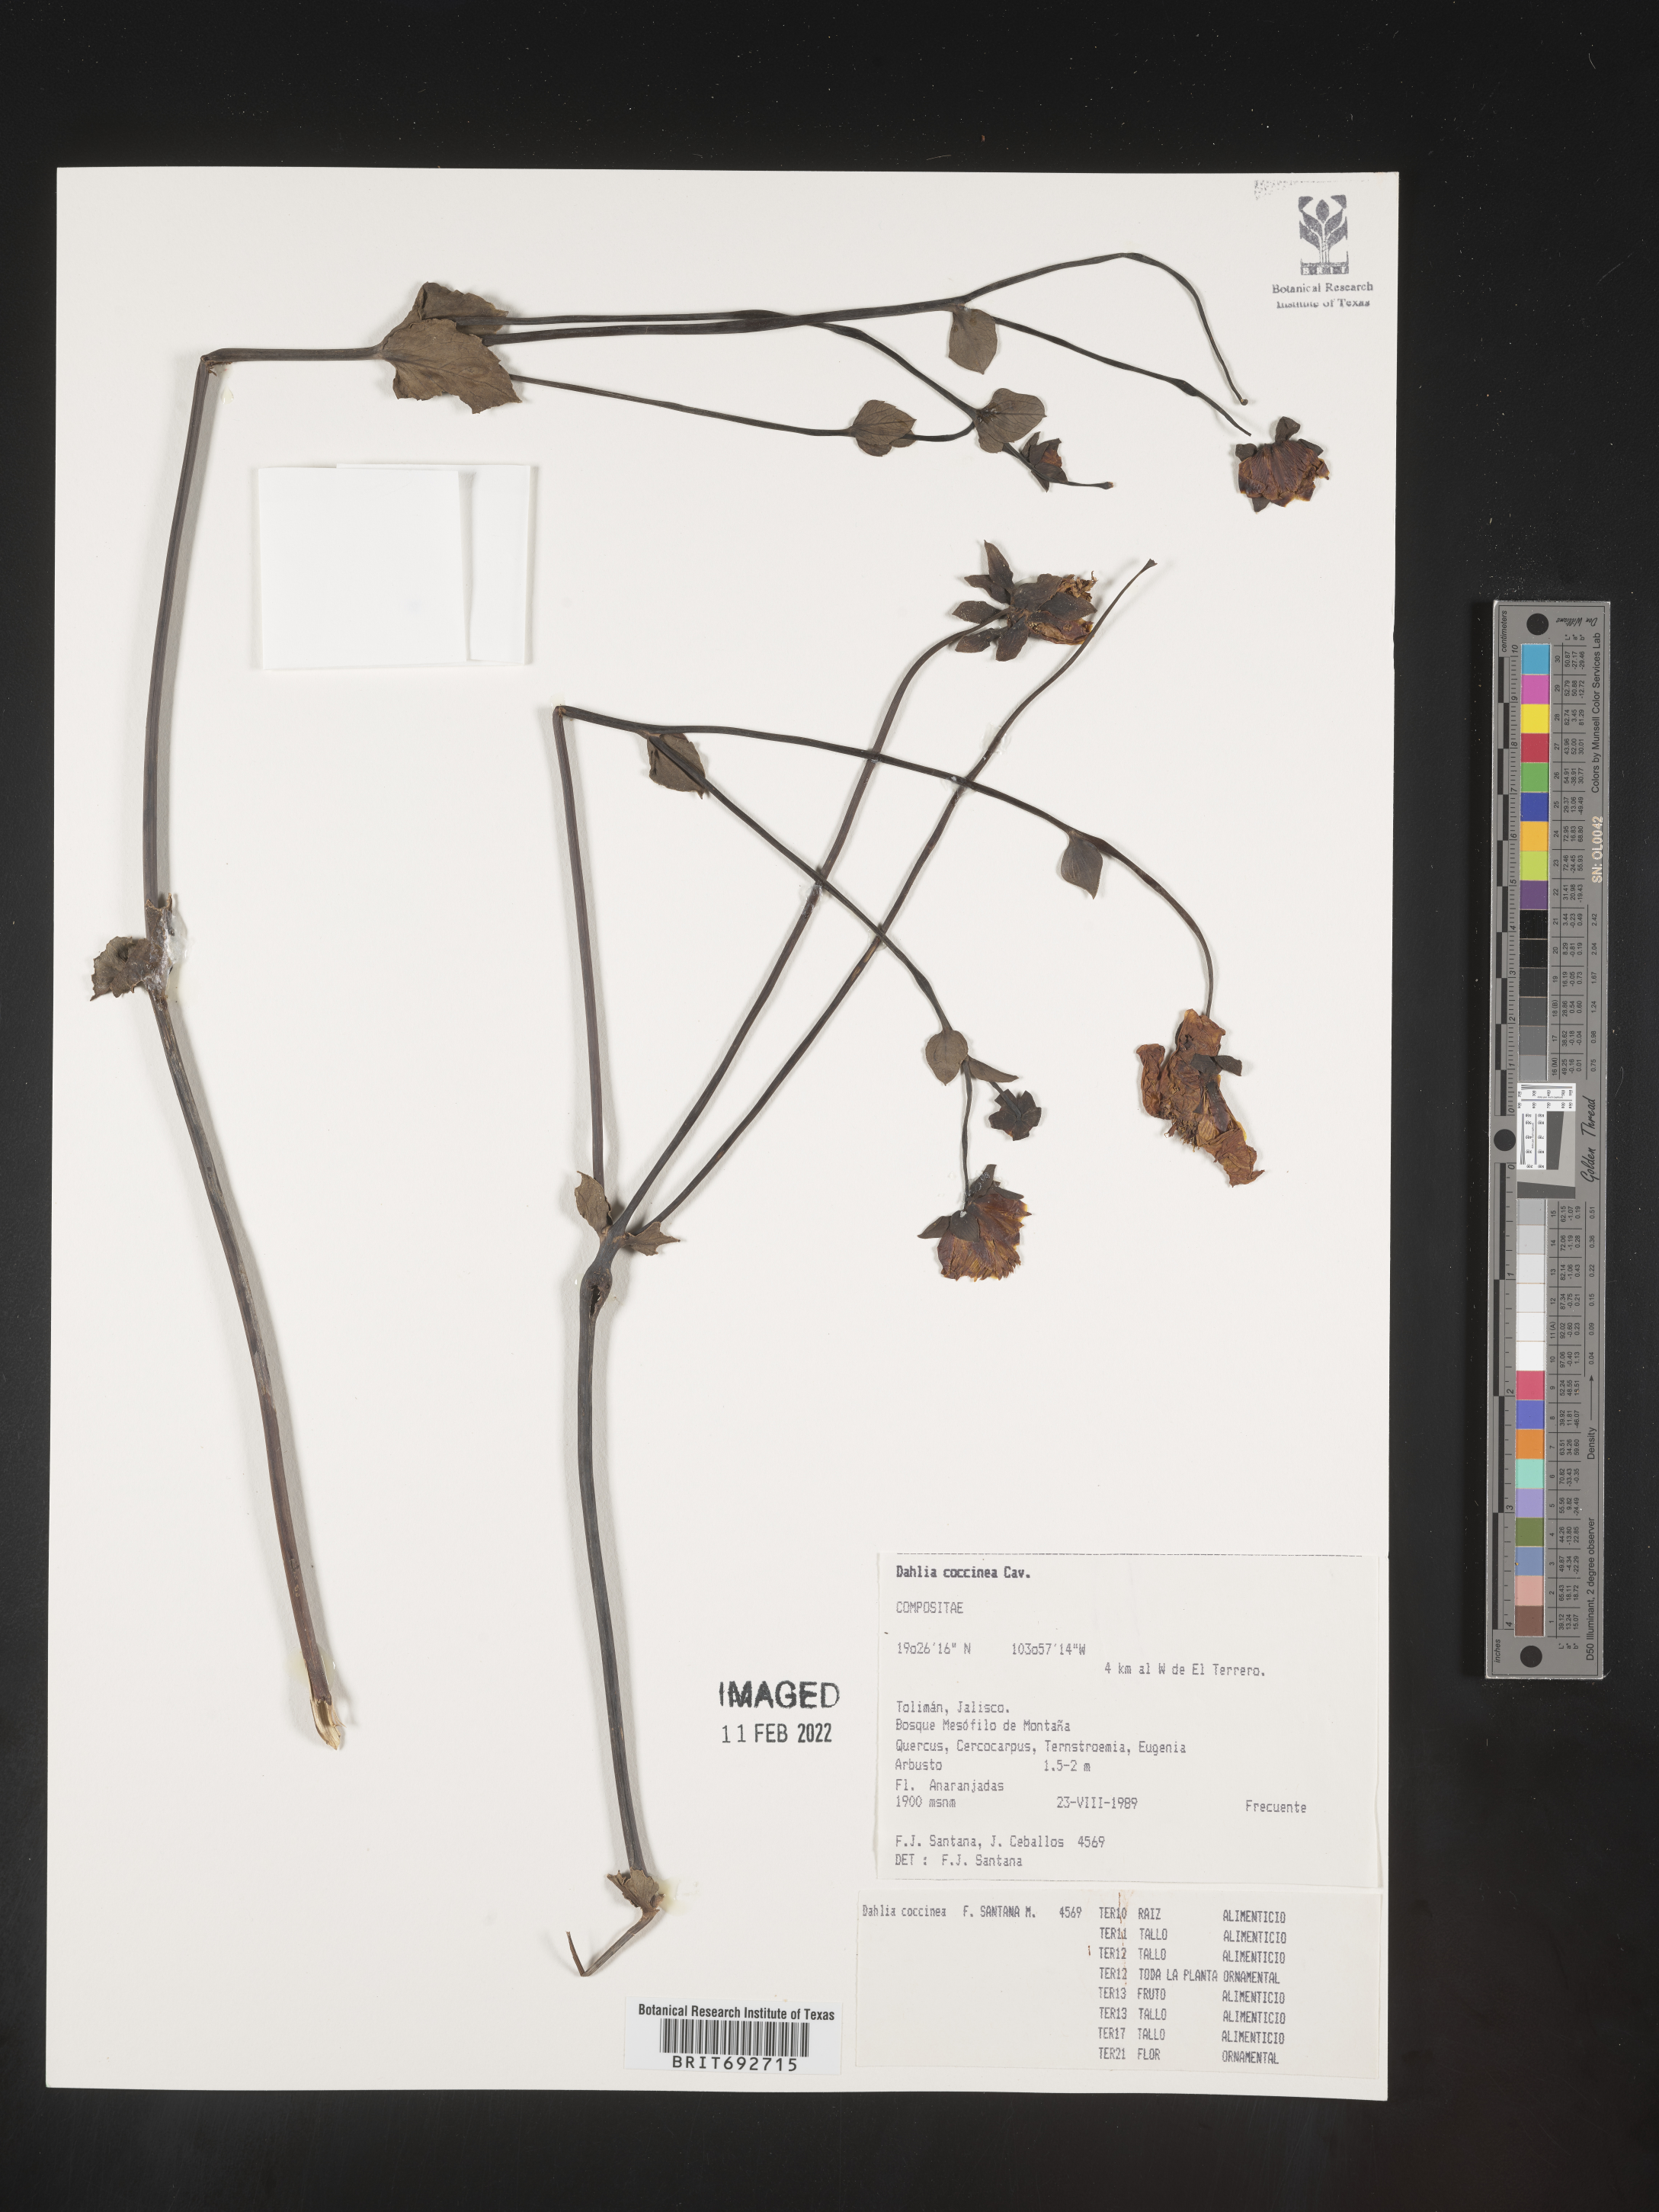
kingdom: Plantae
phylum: Tracheophyta
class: Magnoliopsida
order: Asterales
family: Asteraceae
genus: Dahlia
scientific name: Dahlia
